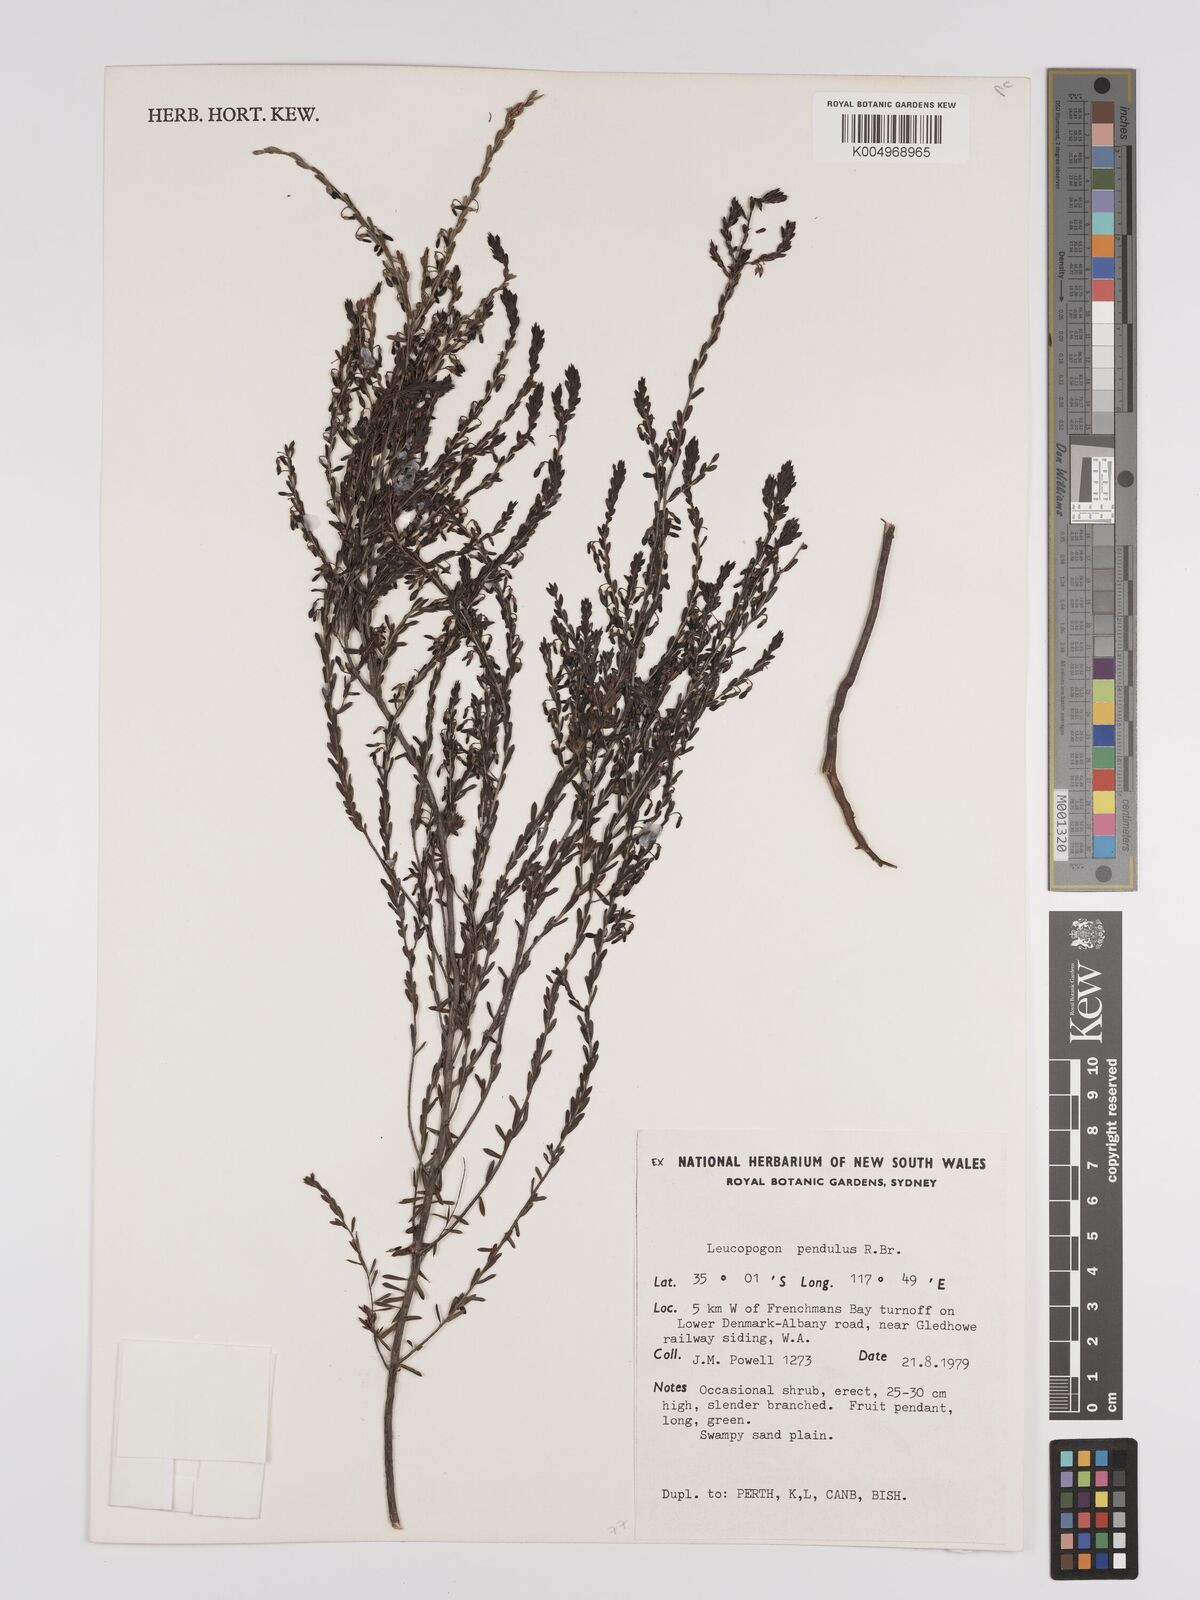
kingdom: Plantae
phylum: Tracheophyta
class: Magnoliopsida
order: Ericales
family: Ericaceae
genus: Styphelia
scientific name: Styphelia pendula
